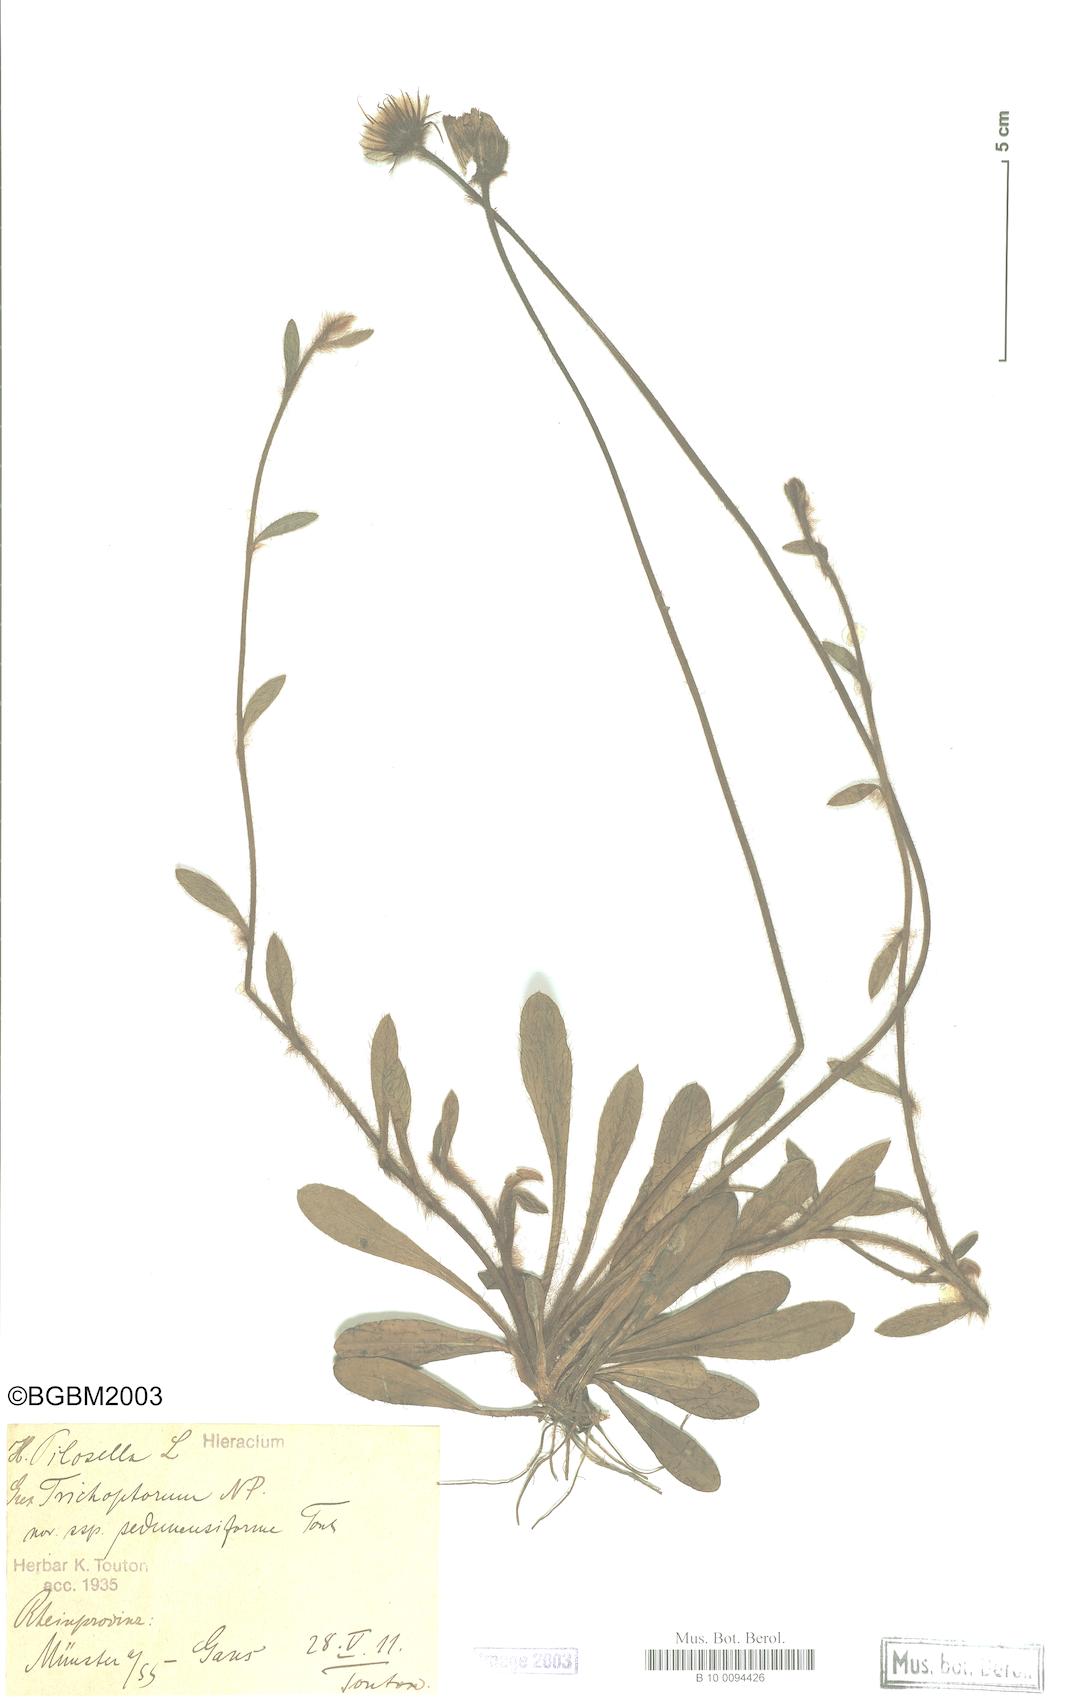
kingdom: Plantae
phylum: Tracheophyta
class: Magnoliopsida
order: Asterales
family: Asteraceae
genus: Pilosella
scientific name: Pilosella officinarum
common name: Mouse-ear hawkweed
